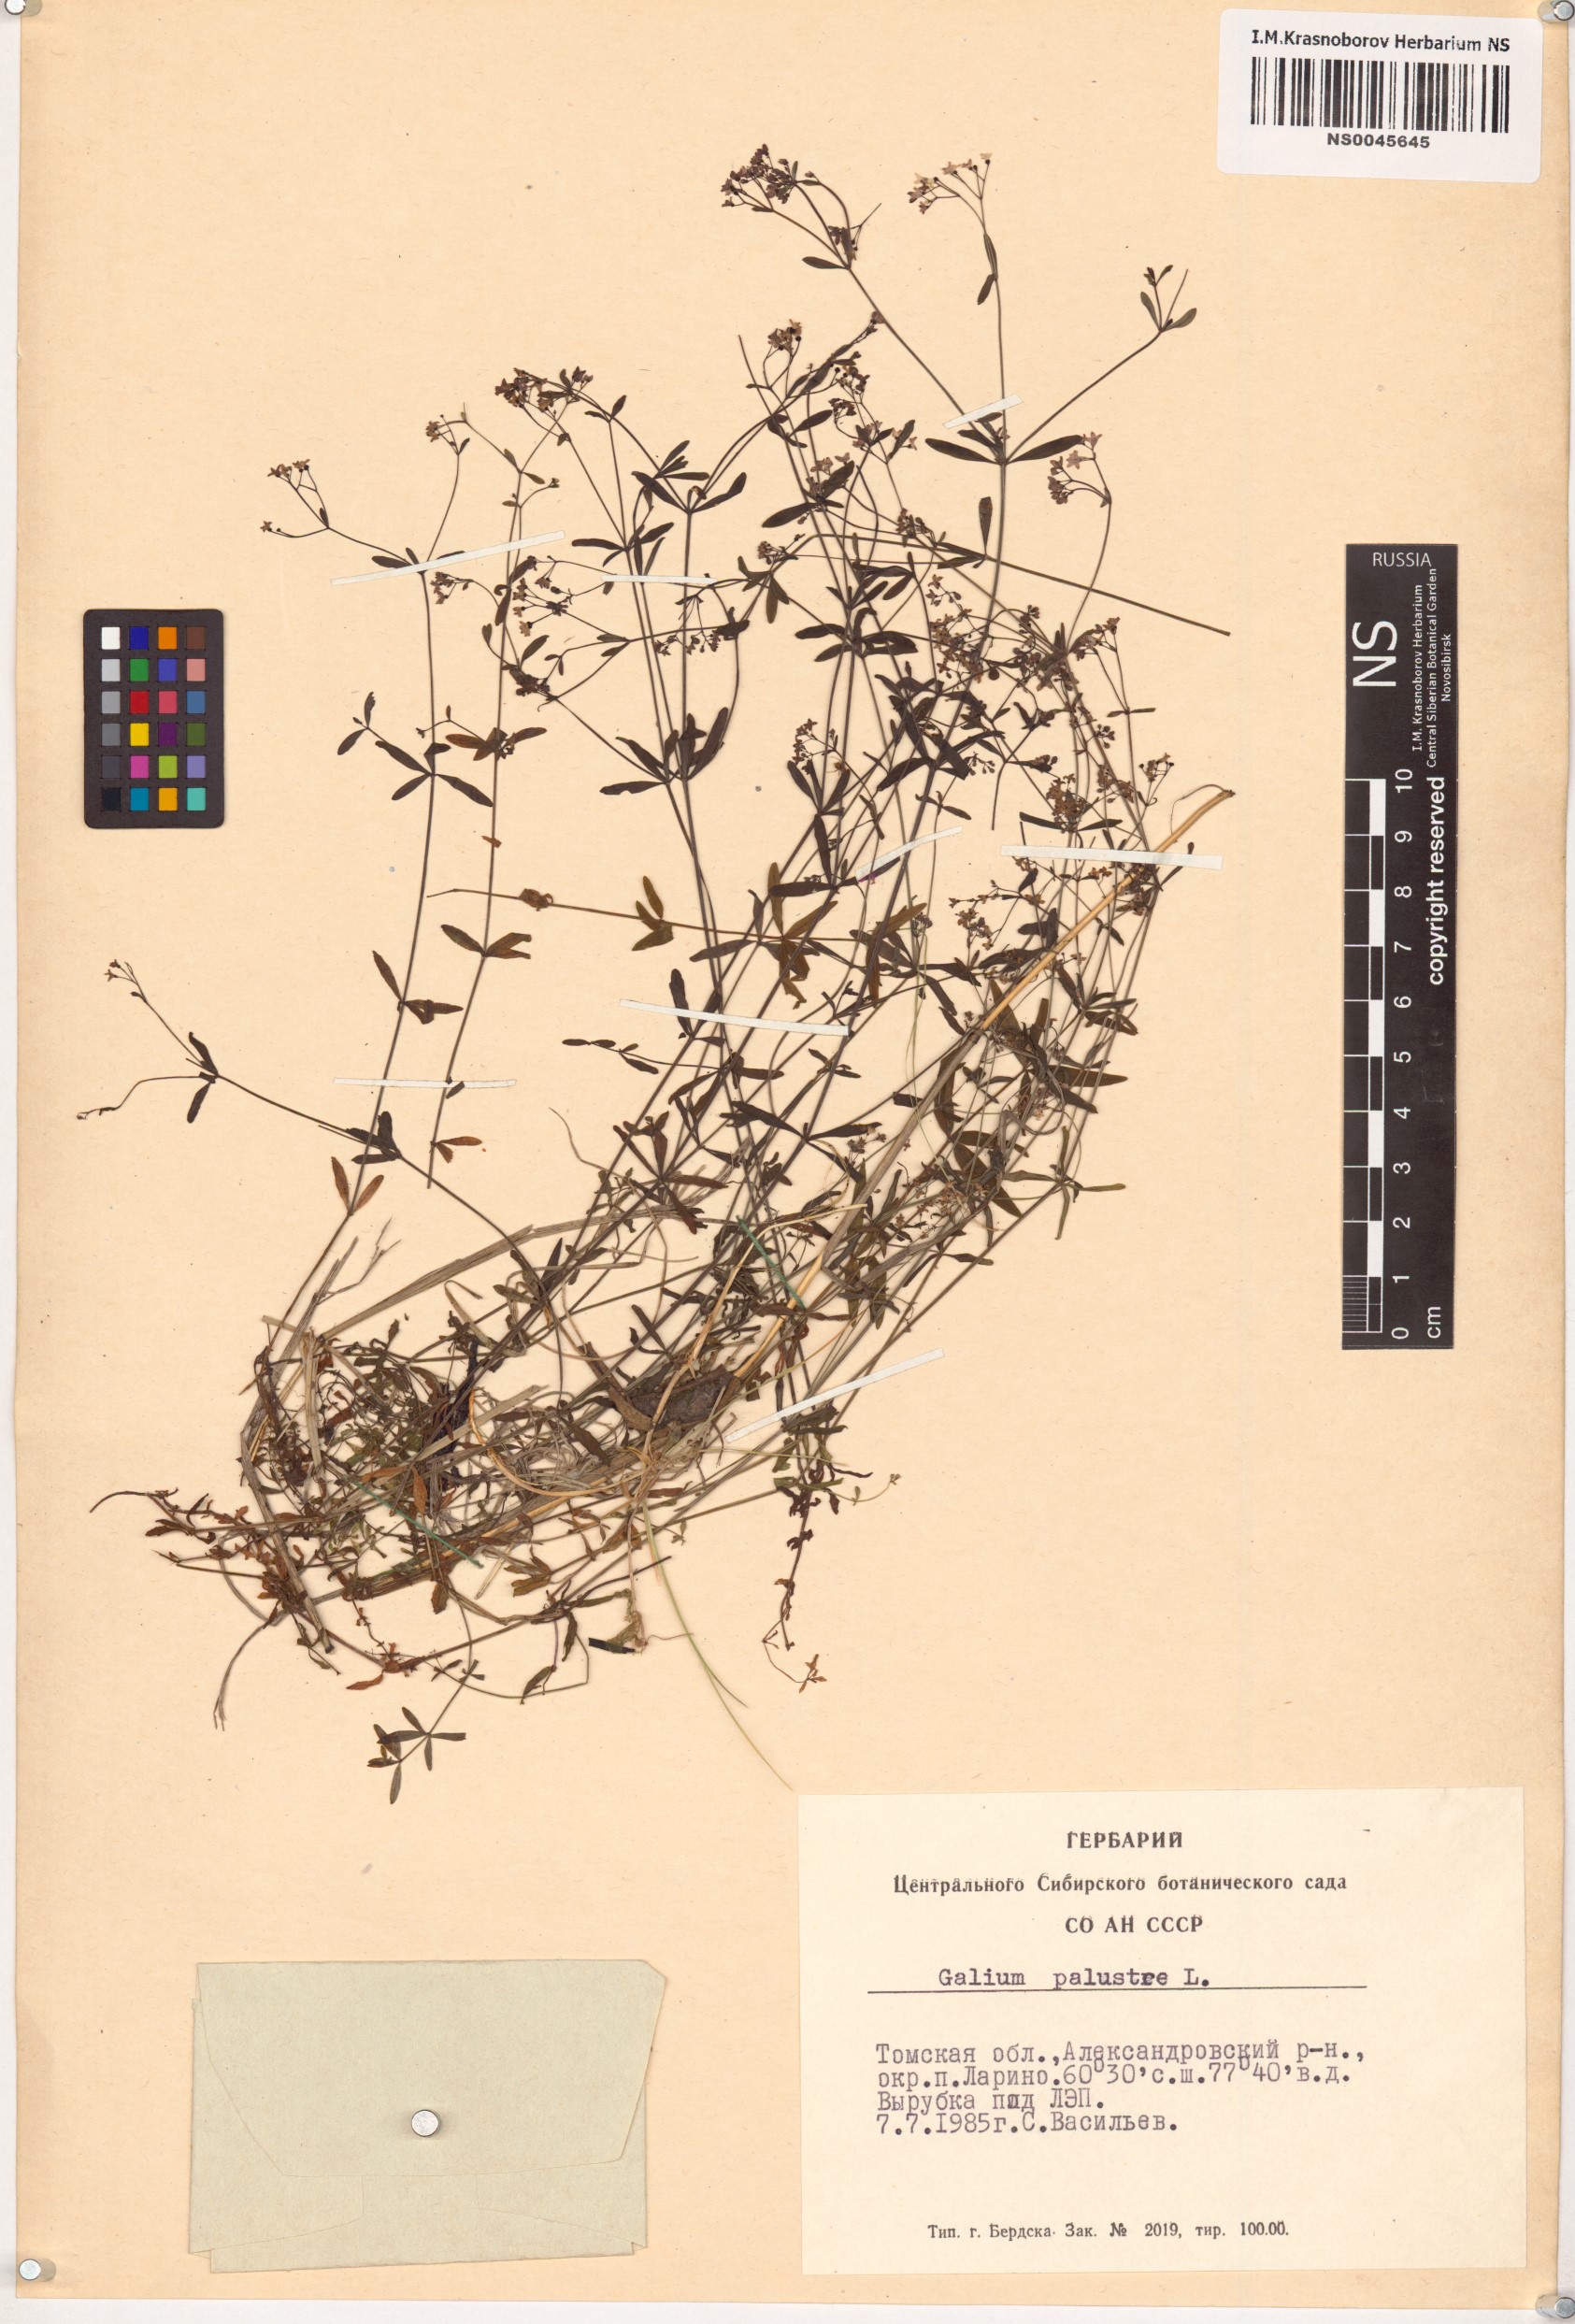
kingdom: Plantae
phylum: Tracheophyta
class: Magnoliopsida
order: Gentianales
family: Rubiaceae
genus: Galium
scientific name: Galium palustre
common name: Common marsh-bedstraw
